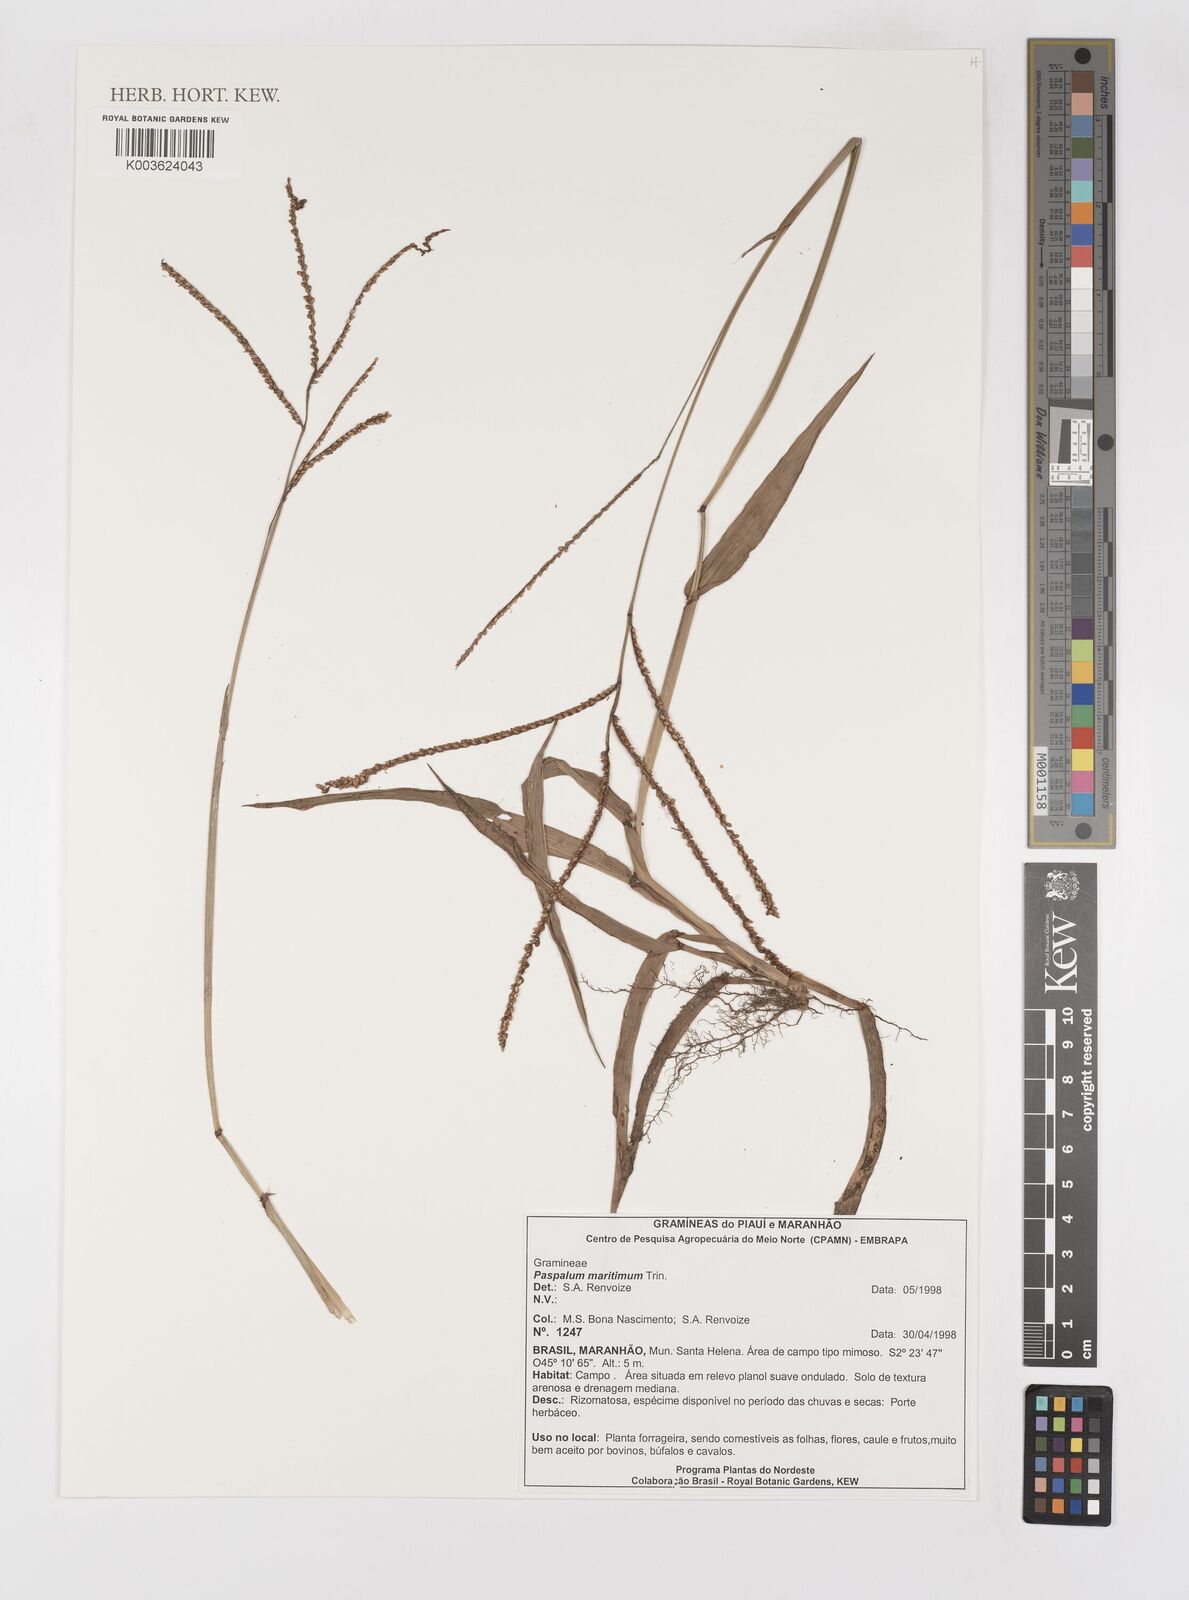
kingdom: Plantae
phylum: Tracheophyta
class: Liliopsida
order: Poales
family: Poaceae
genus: Paspalum
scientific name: Paspalum maritimum
